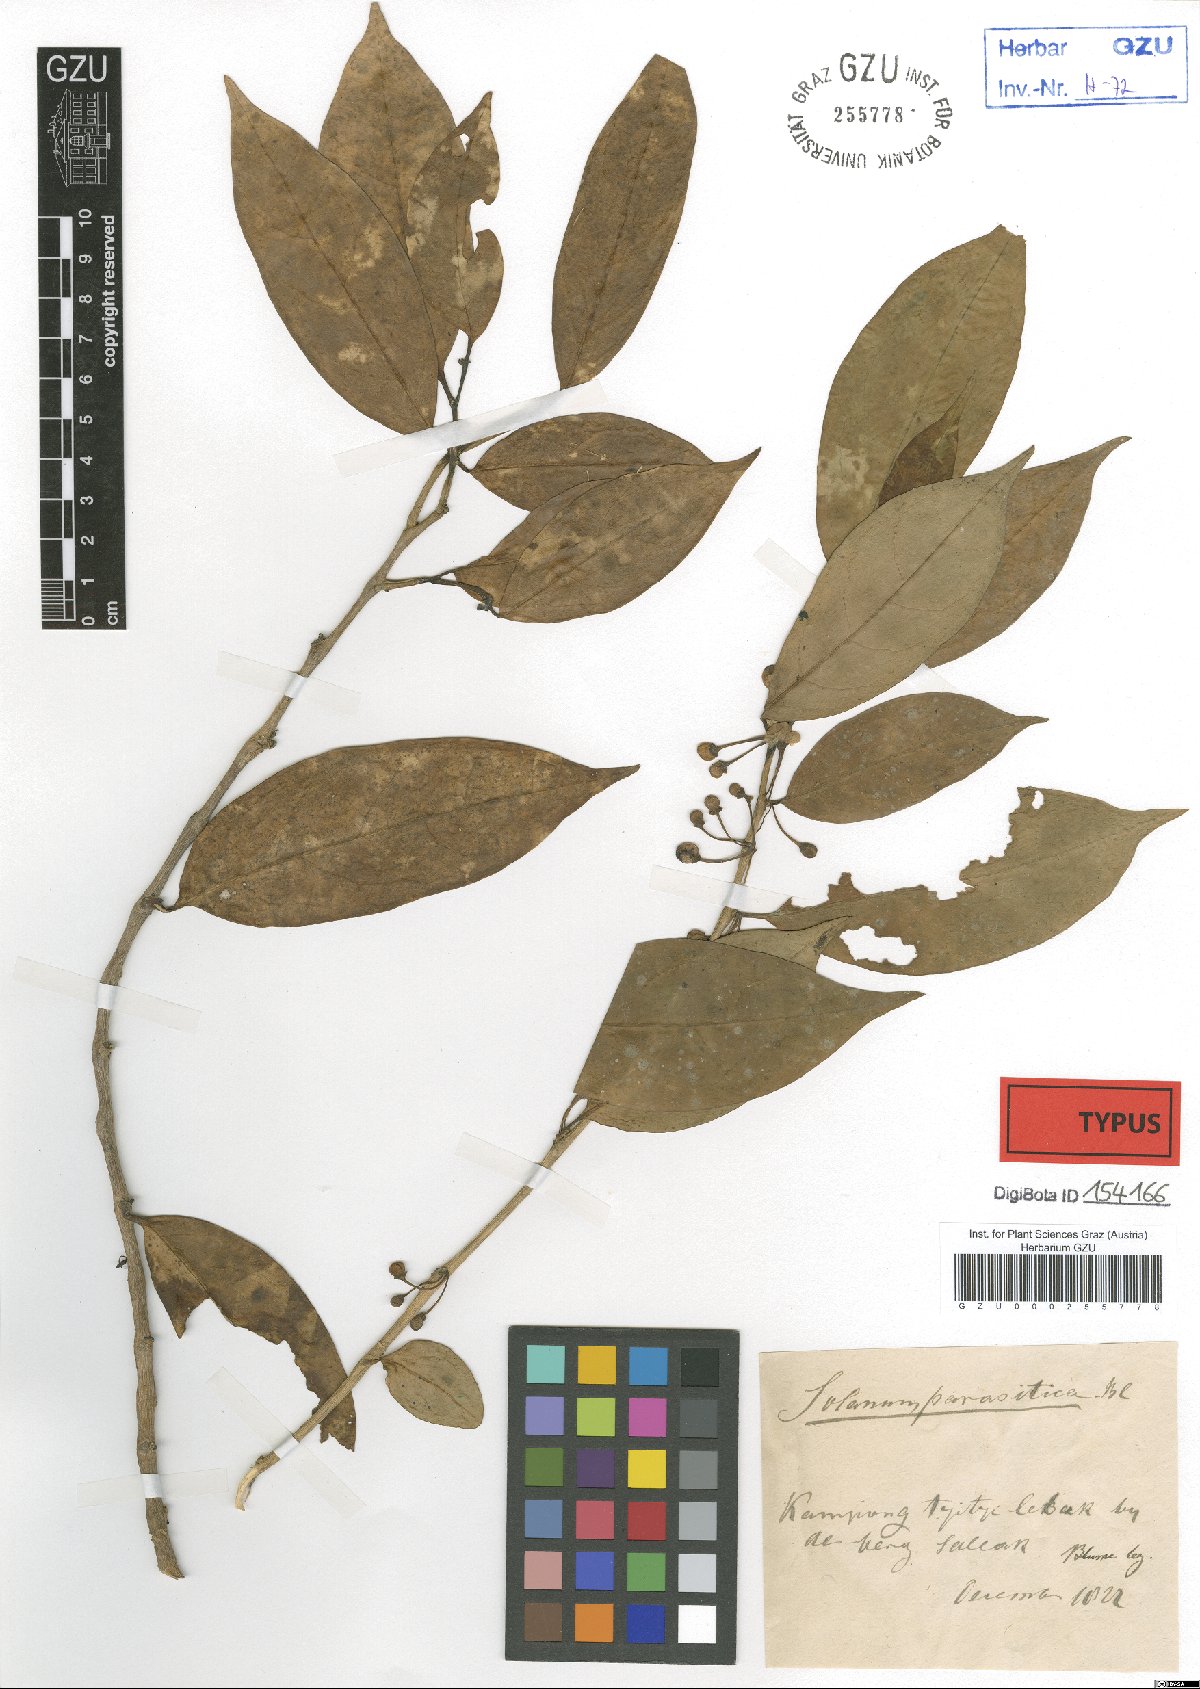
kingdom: Plantae
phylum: Tracheophyta
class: Magnoliopsida
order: Solanales
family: Solanaceae
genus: Lycianthes
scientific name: Lycianthes parasitica
